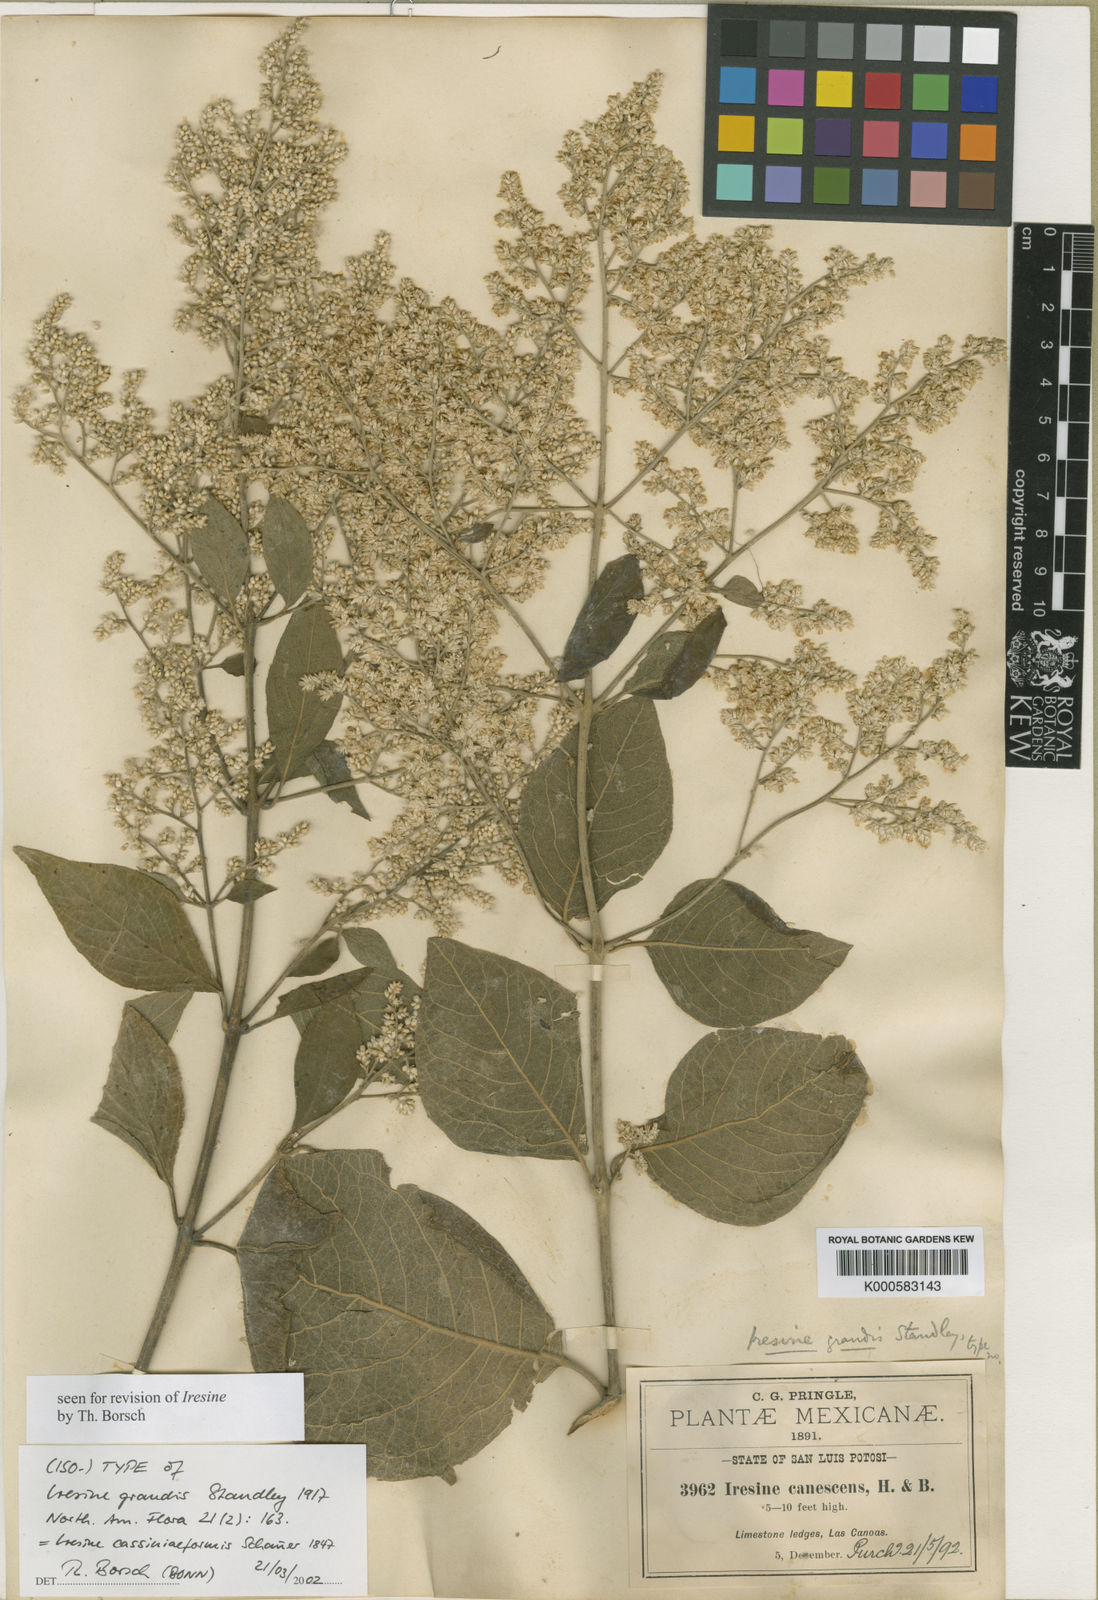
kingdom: Plantae
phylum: Tracheophyta
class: Magnoliopsida
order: Caryophyllales
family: Amaranthaceae
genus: Iresine
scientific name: Iresine
